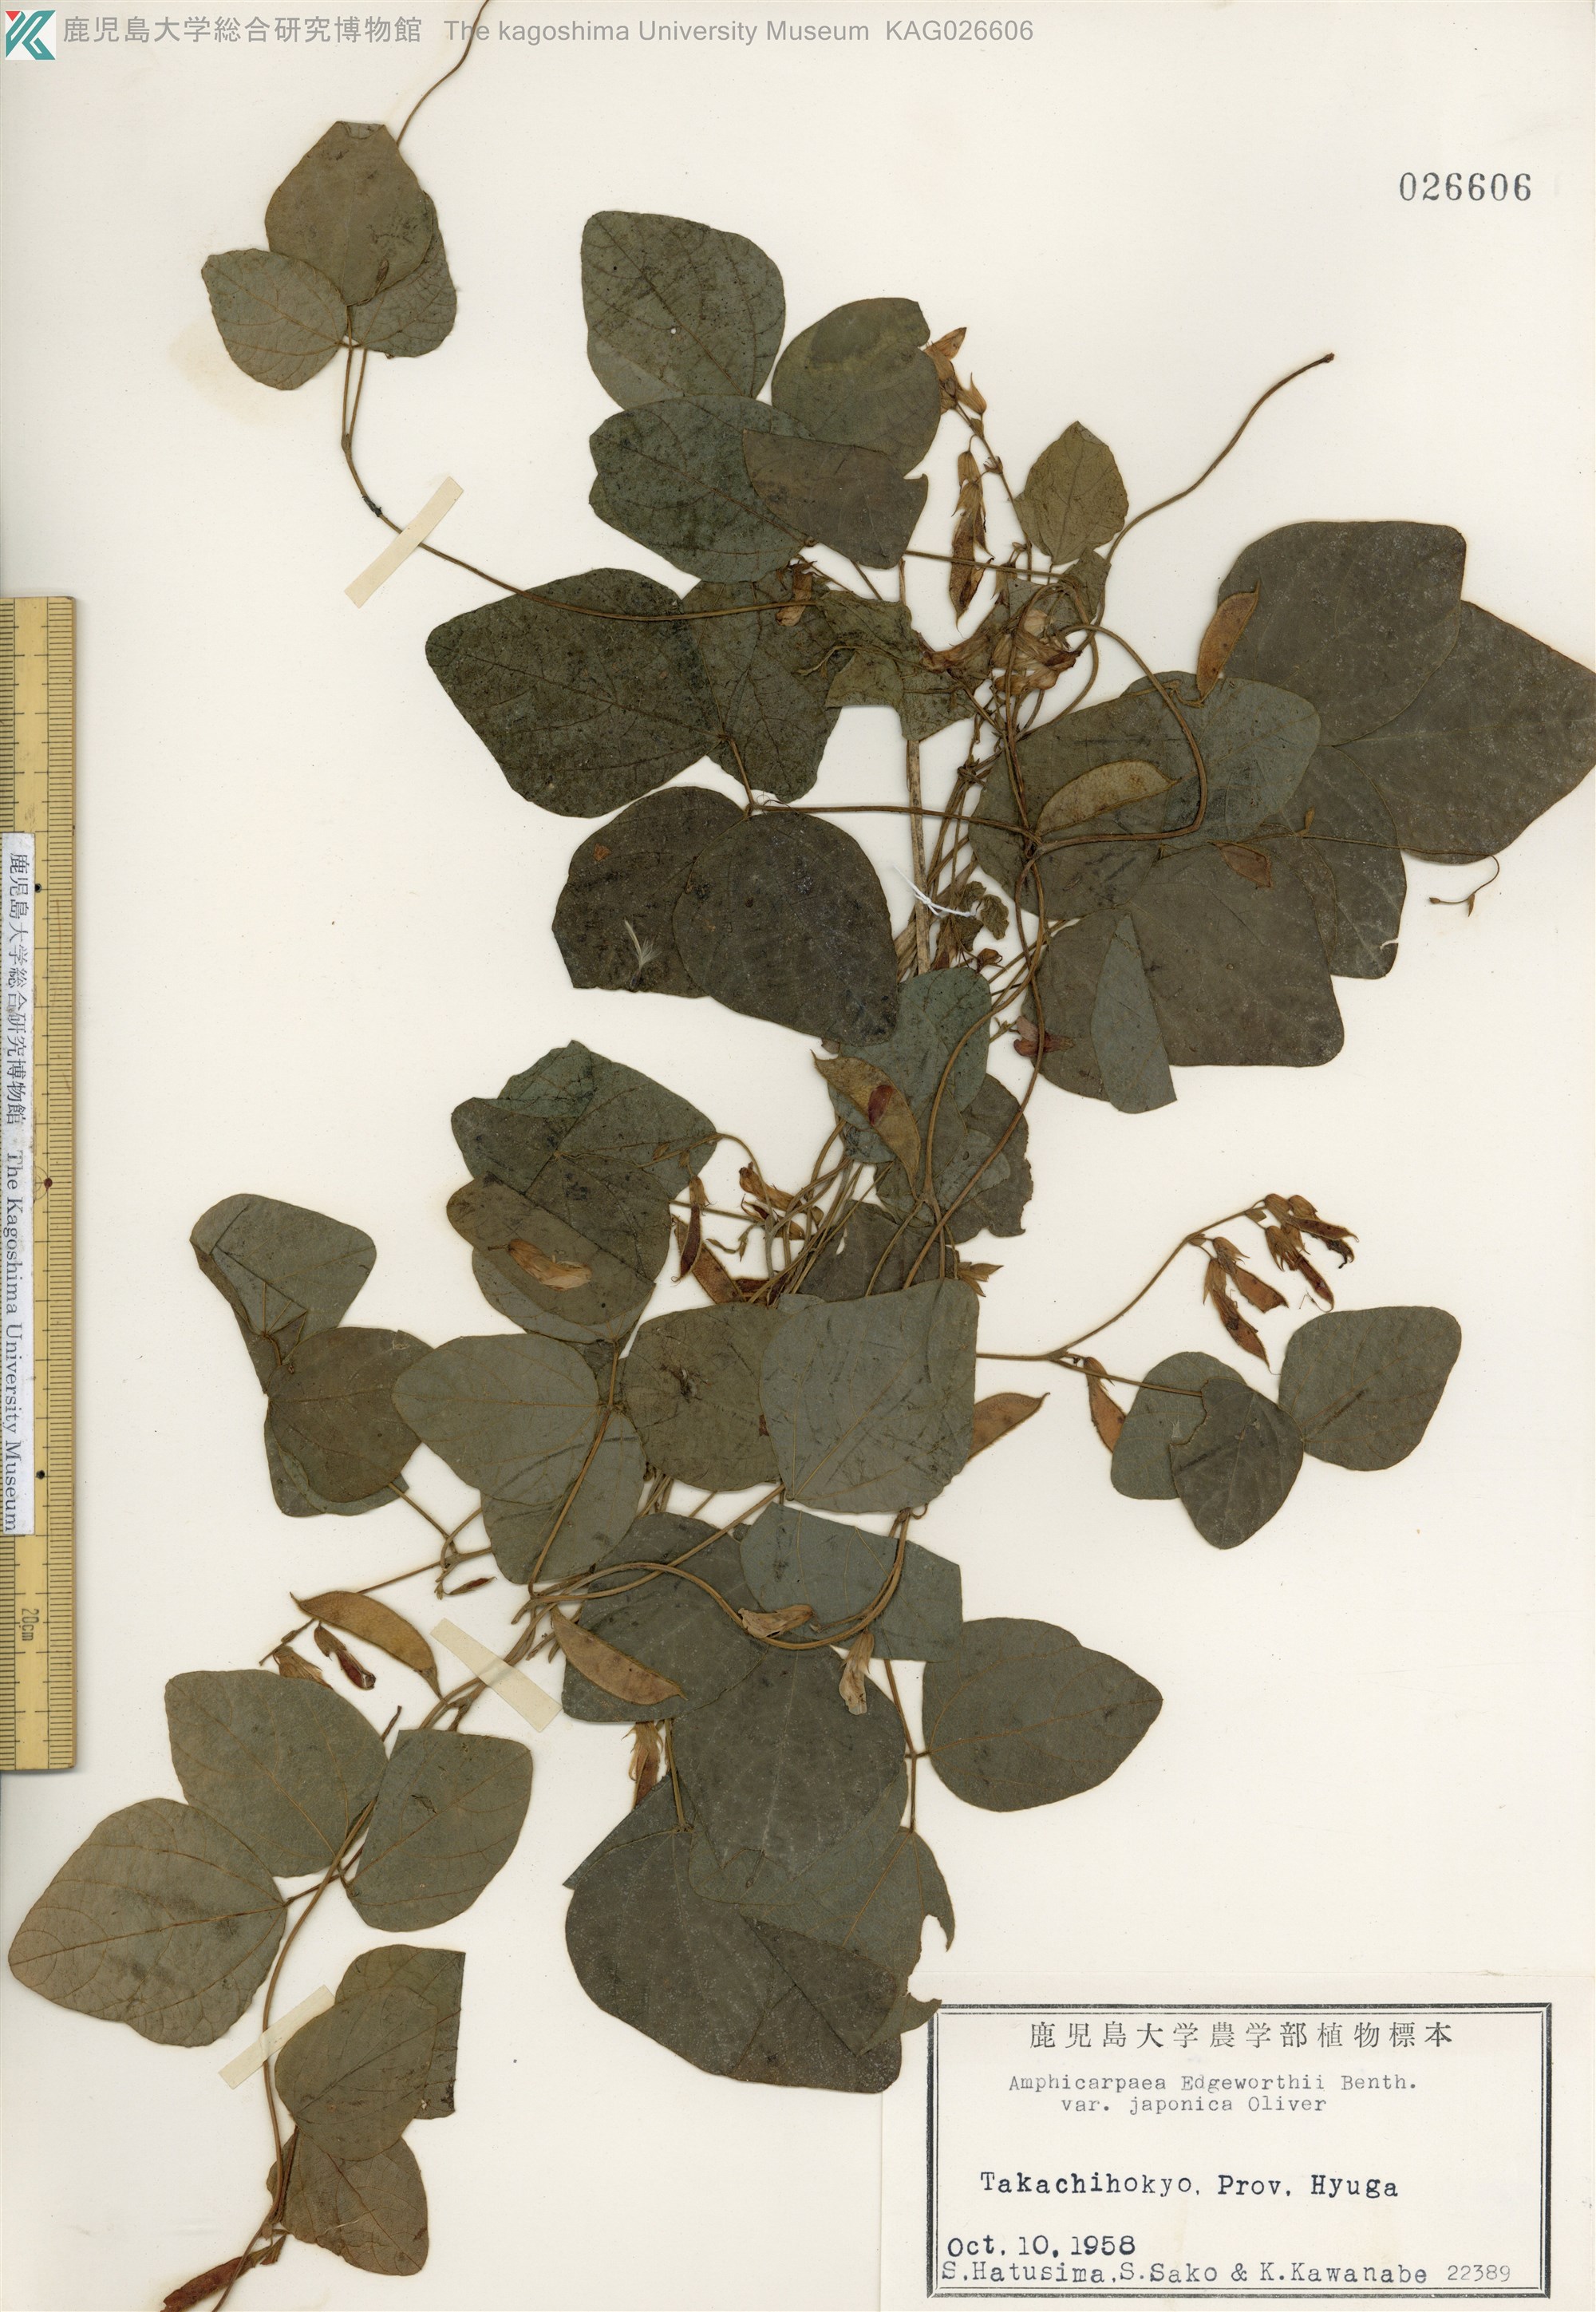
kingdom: Plantae
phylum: Tracheophyta
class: Magnoliopsida
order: Fabales
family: Fabaceae
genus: Amphicarpaea
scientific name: Amphicarpaea edgeworthii
